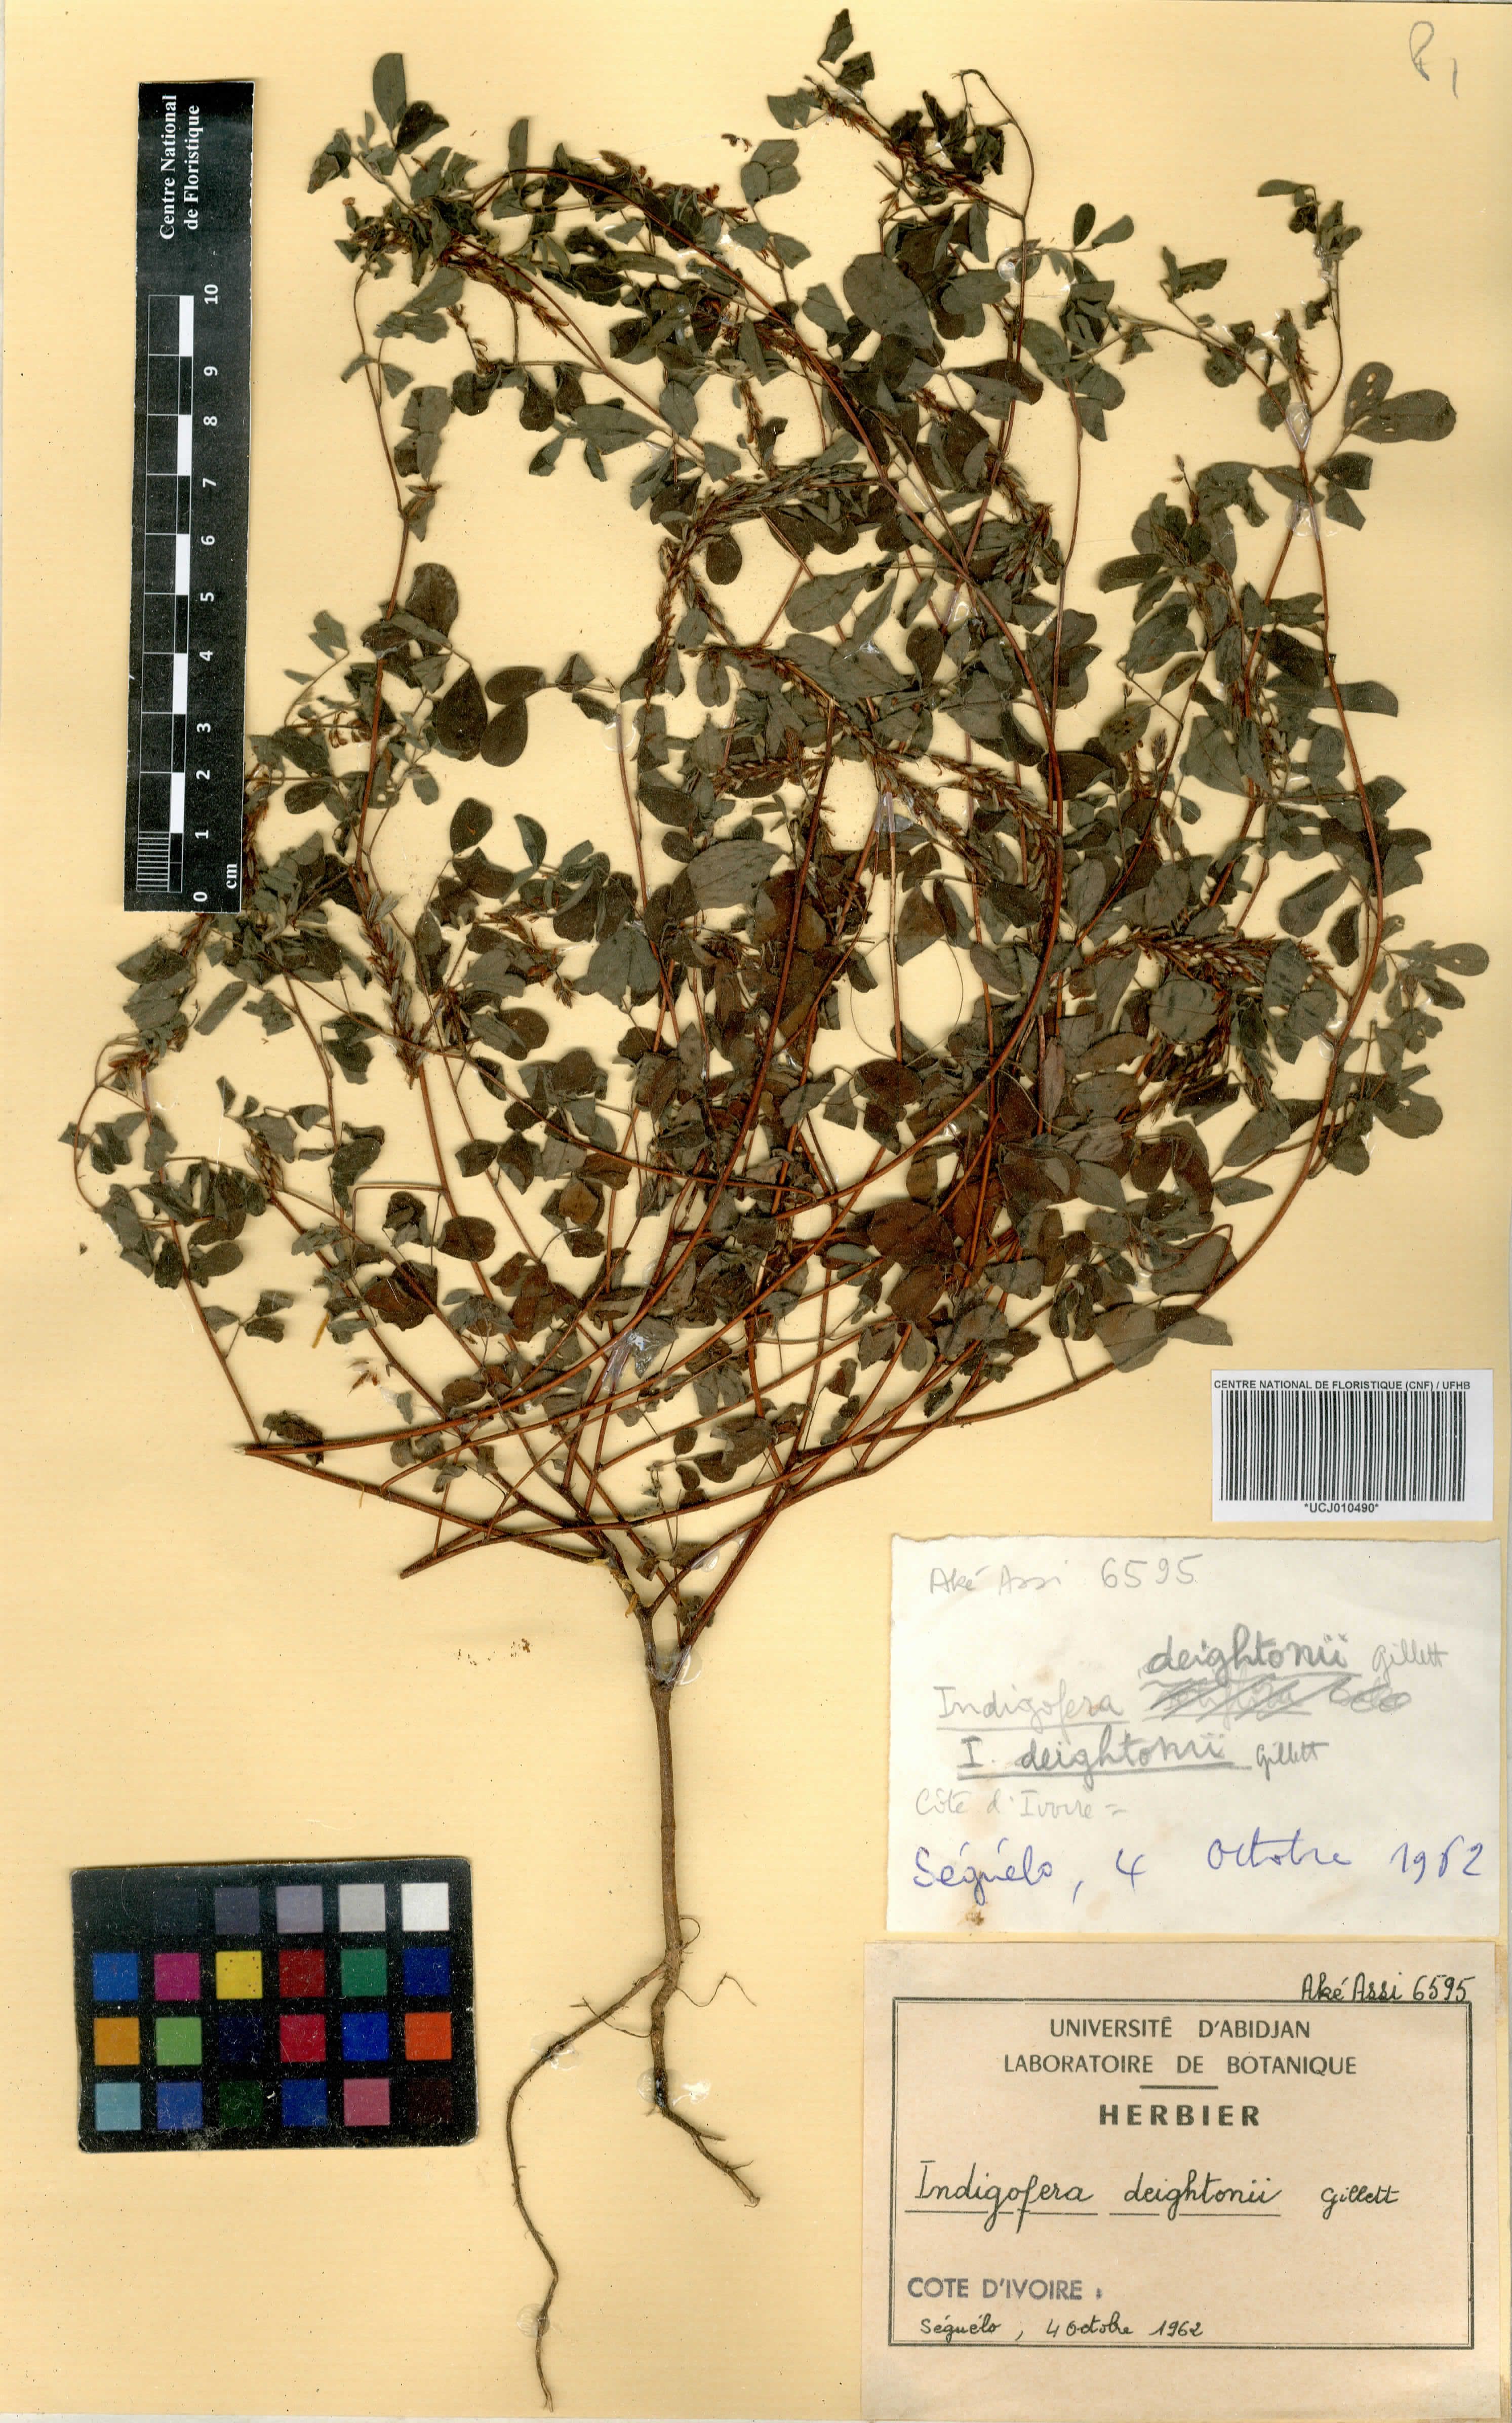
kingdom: Plantae
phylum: Tracheophyta
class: Magnoliopsida
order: Fabales
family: Fabaceae
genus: Indigofera
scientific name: Indigofera deightonii
